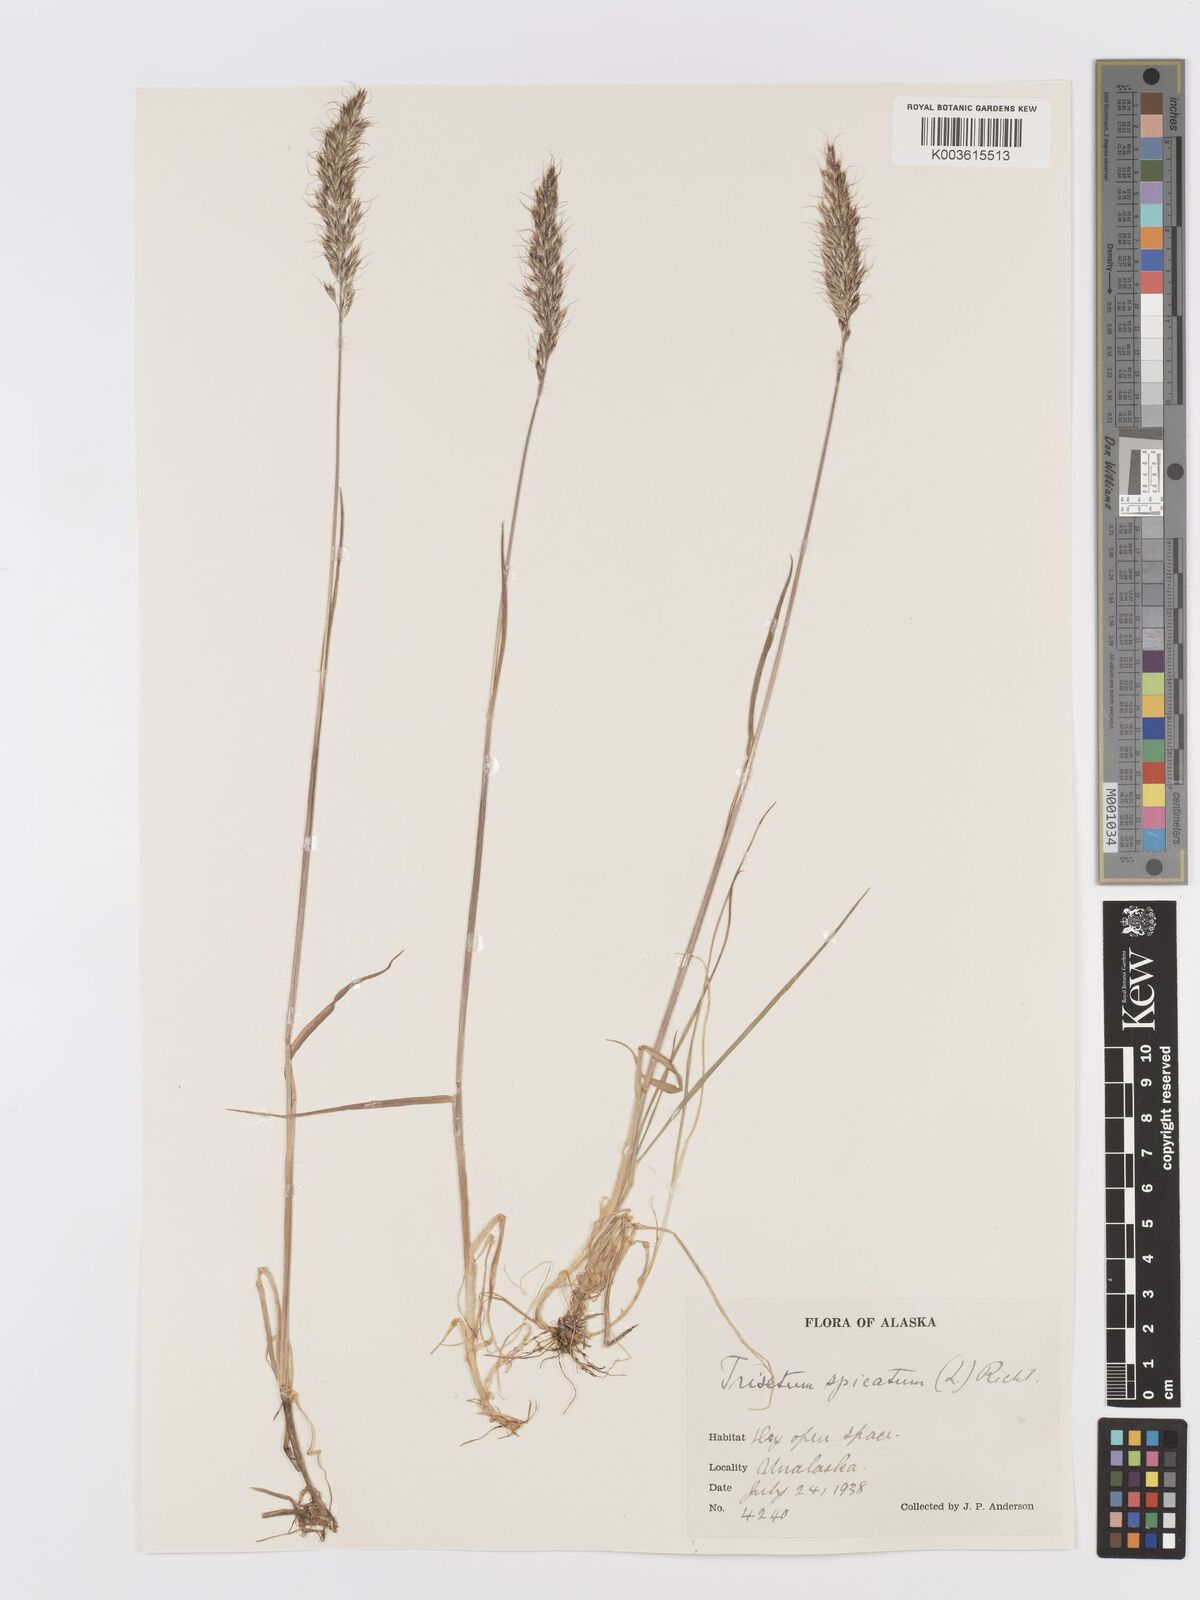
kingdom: Plantae
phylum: Tracheophyta
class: Liliopsida
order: Poales
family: Poaceae
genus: Koeleria
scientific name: Koeleria spicata
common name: Mountain trisetum
